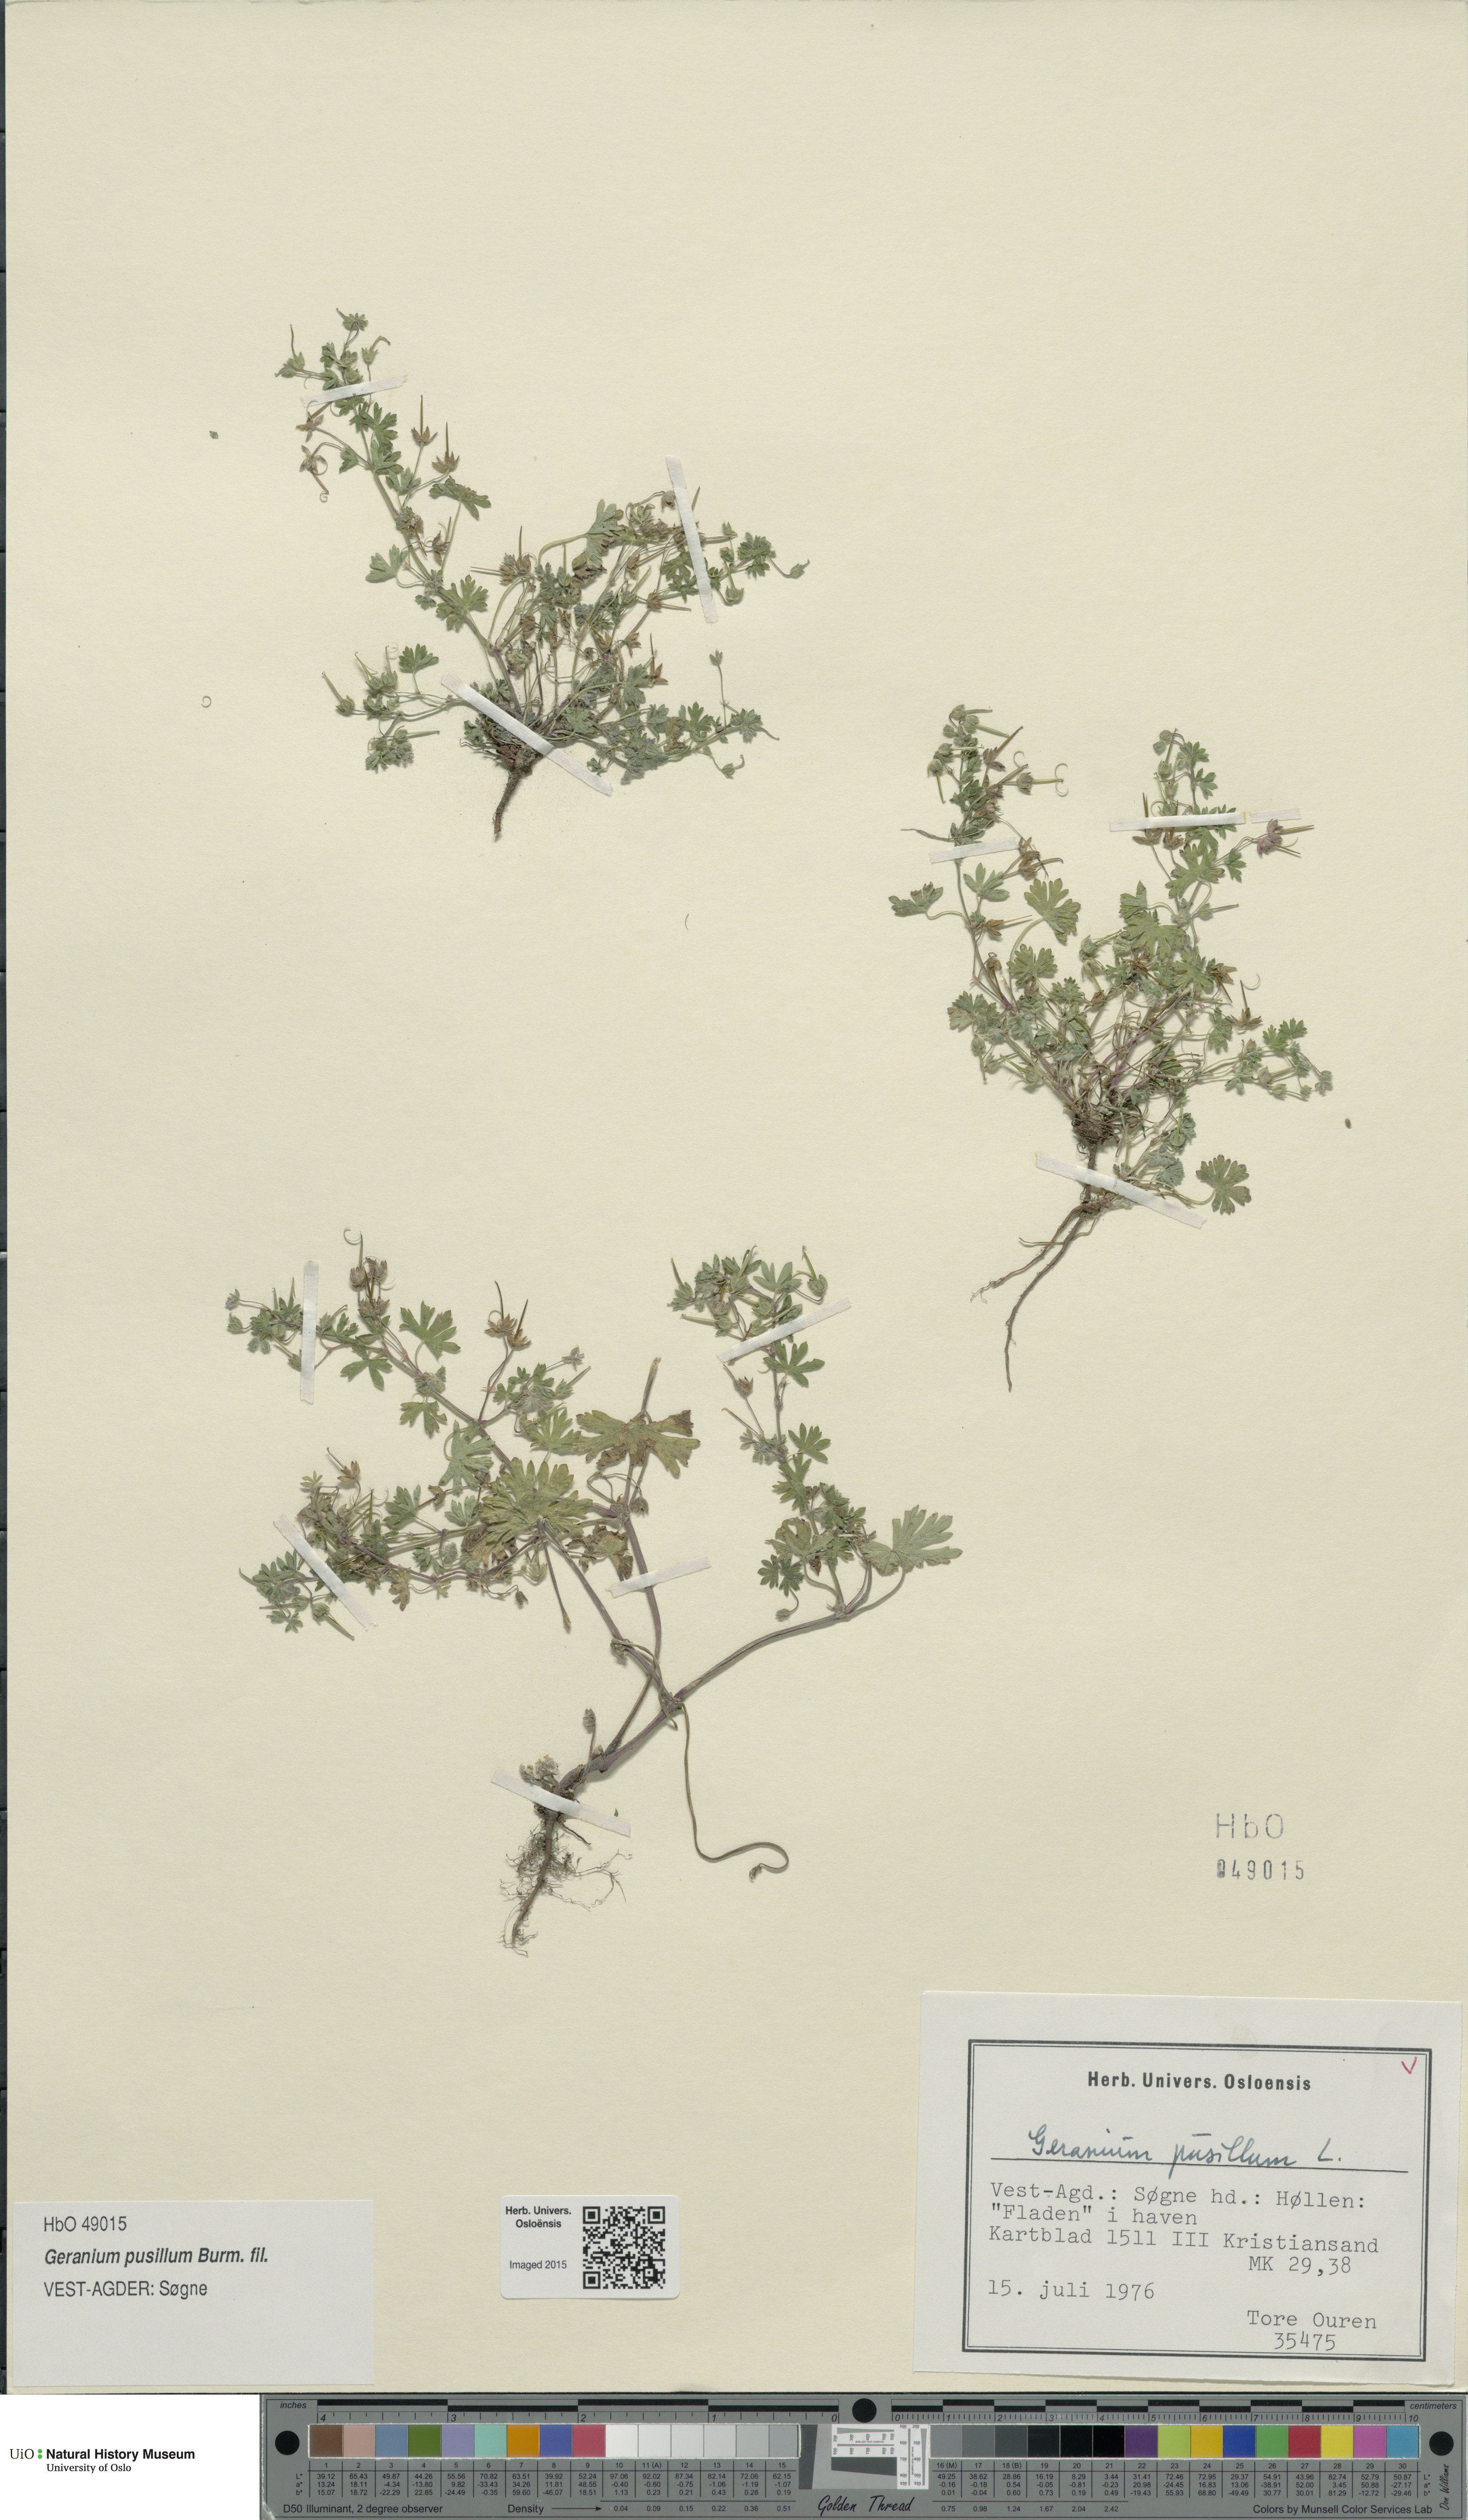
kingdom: Plantae
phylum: Tracheophyta
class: Magnoliopsida
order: Geraniales
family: Geraniaceae
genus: Geranium
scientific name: Geranium pusillum
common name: Small geranium
